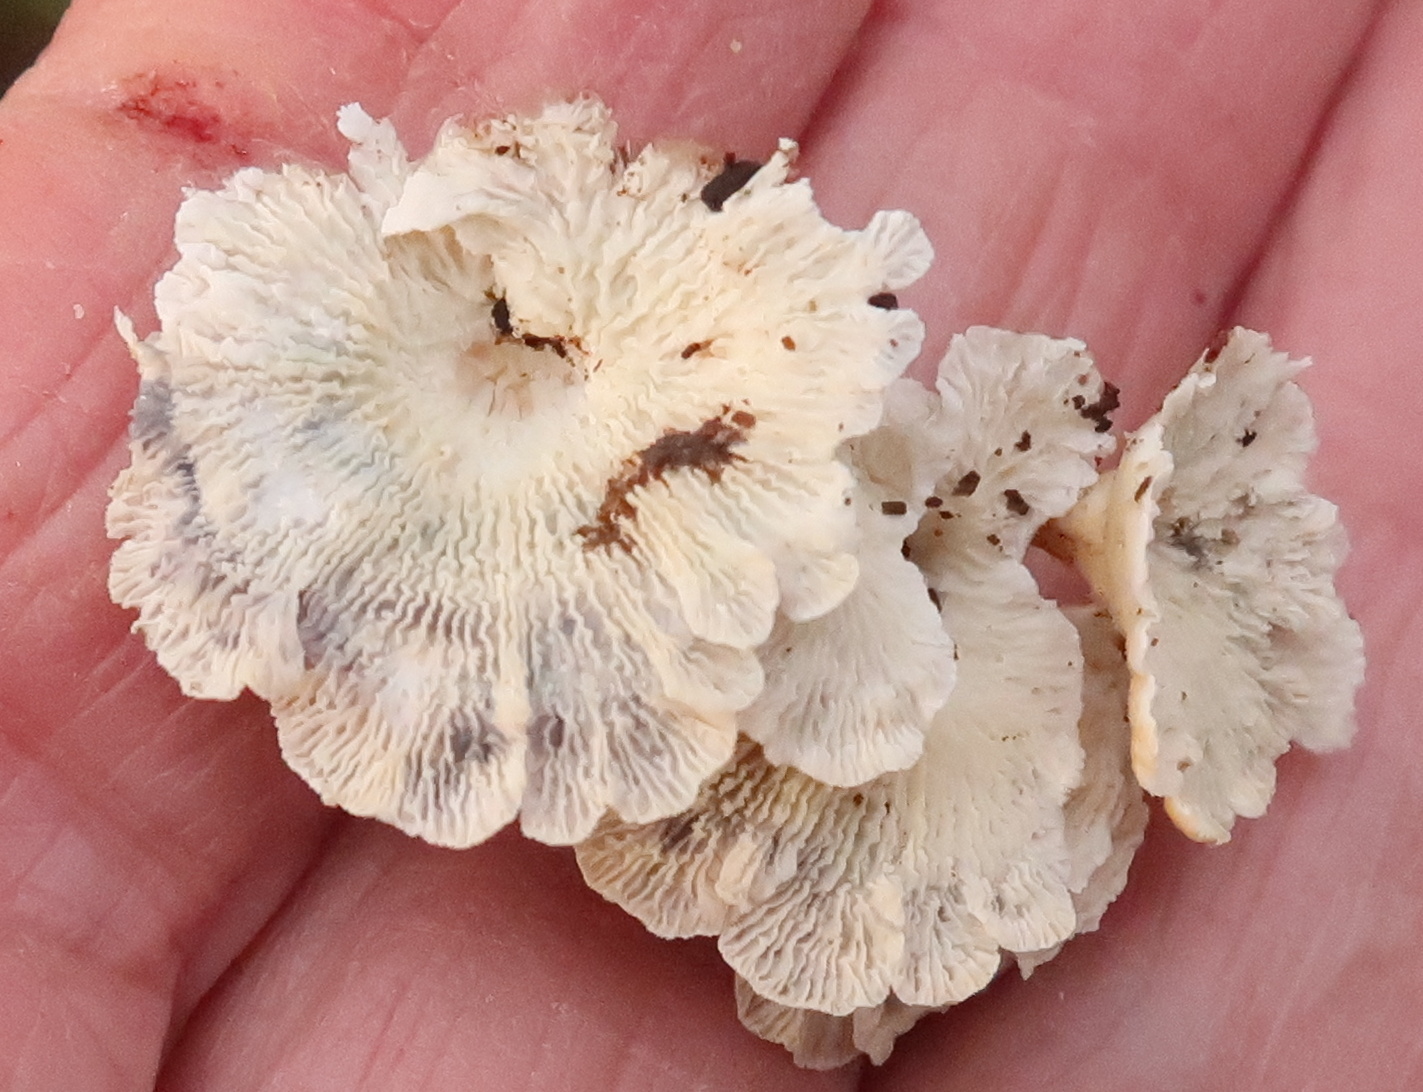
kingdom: Fungi
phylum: Basidiomycota
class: Agaricomycetes
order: Amylocorticiales
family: Amylocorticiaceae
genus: Plicaturopsis
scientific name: Plicaturopsis crispa
